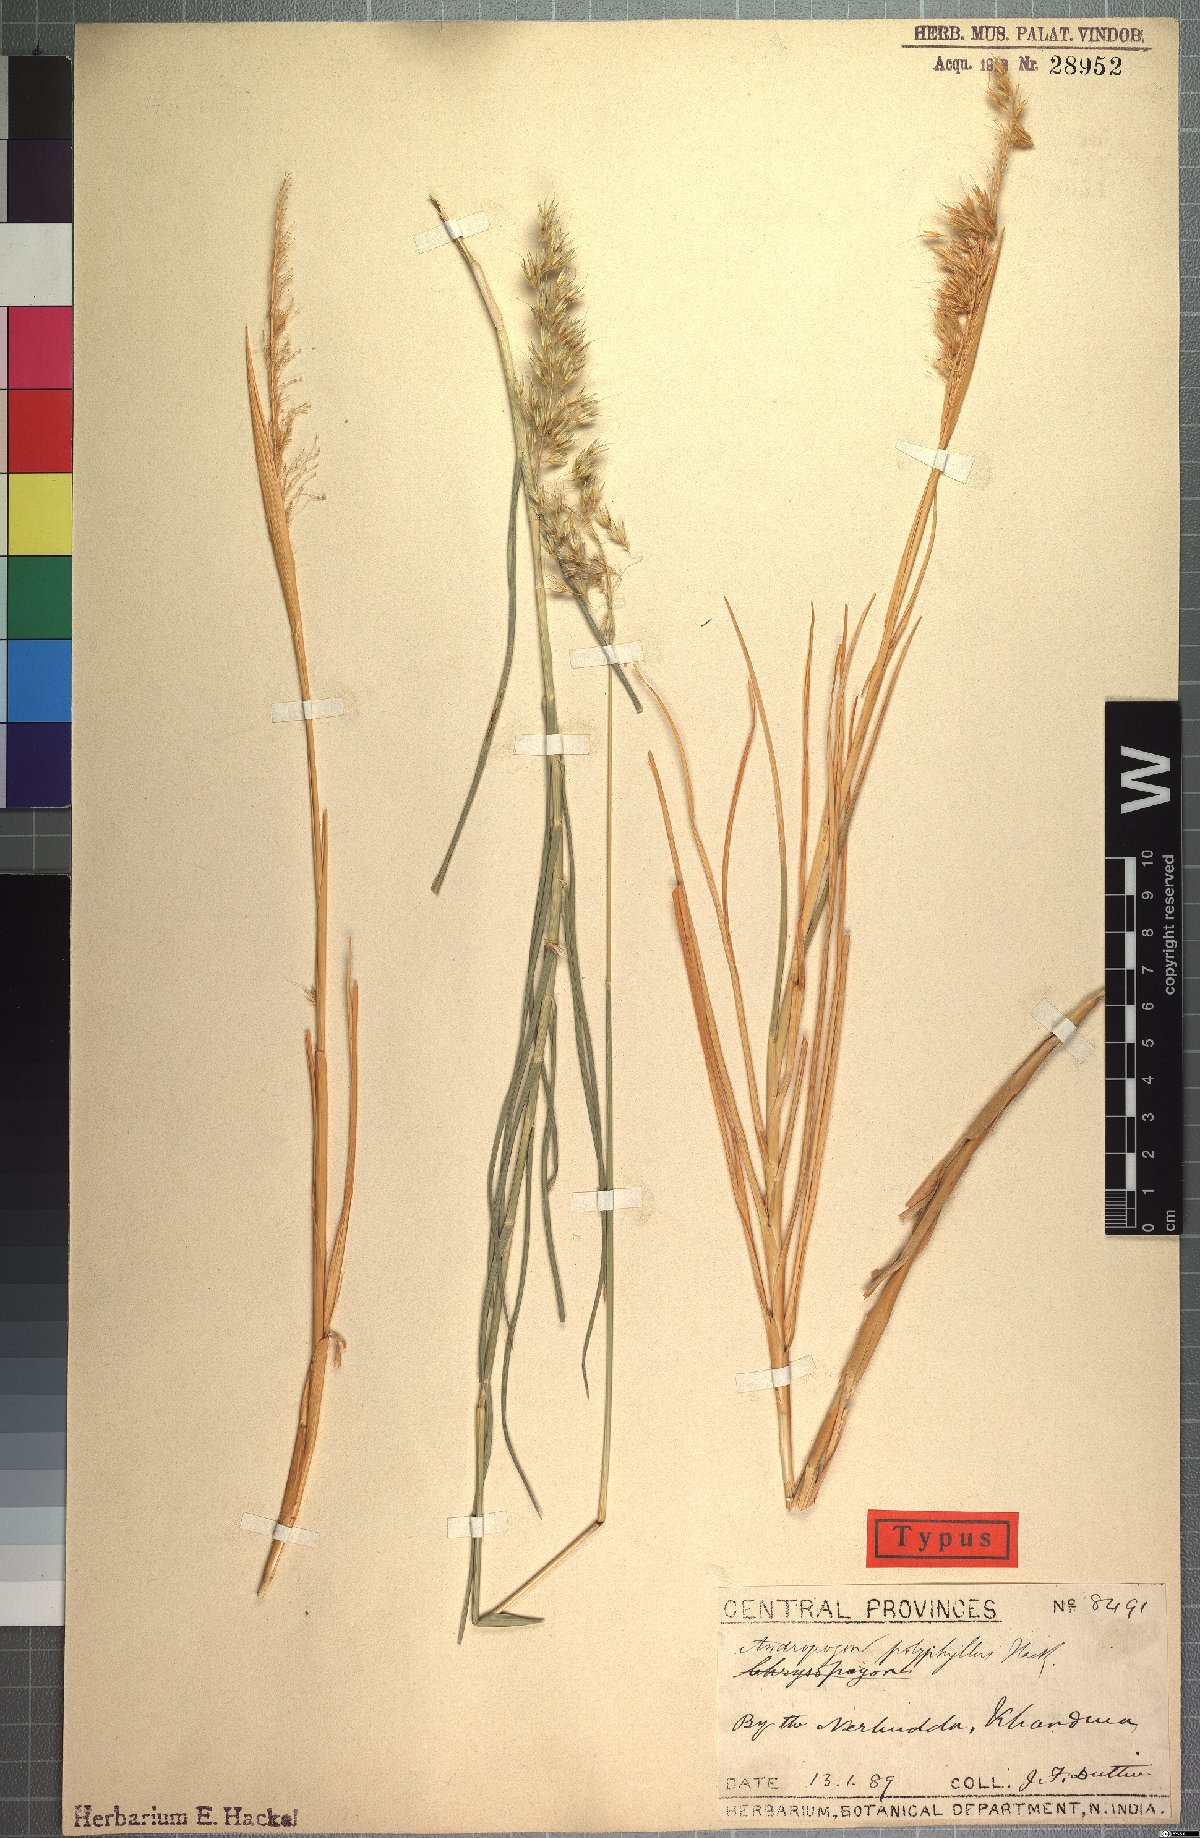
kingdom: Plantae
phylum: Tracheophyta
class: Liliopsida
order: Poales
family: Poaceae
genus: Chrysopogon
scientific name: Chrysopogon polyphyllus
